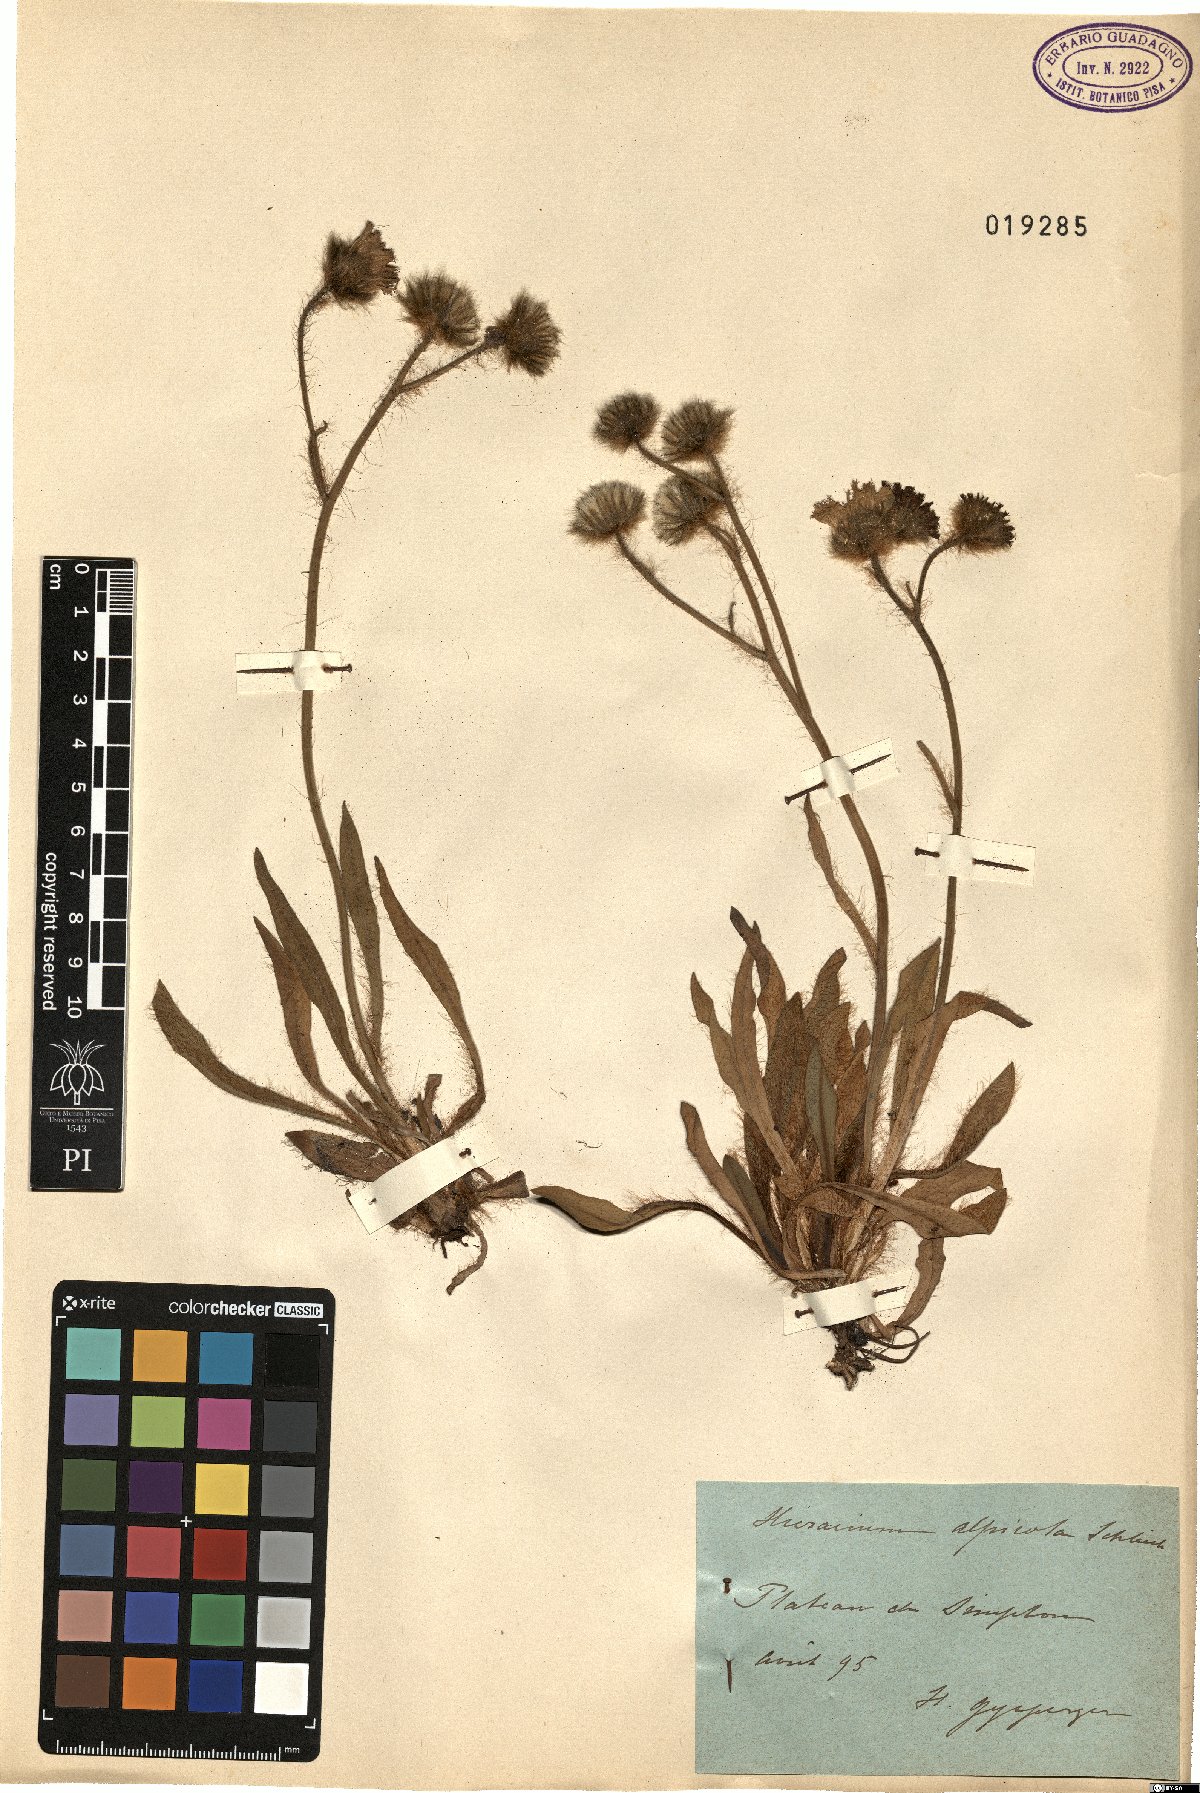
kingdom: Plantae
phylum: Tracheophyta
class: Magnoliopsida
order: Asterales
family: Asteraceae
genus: Pilosella
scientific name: Pilosella alpicola
